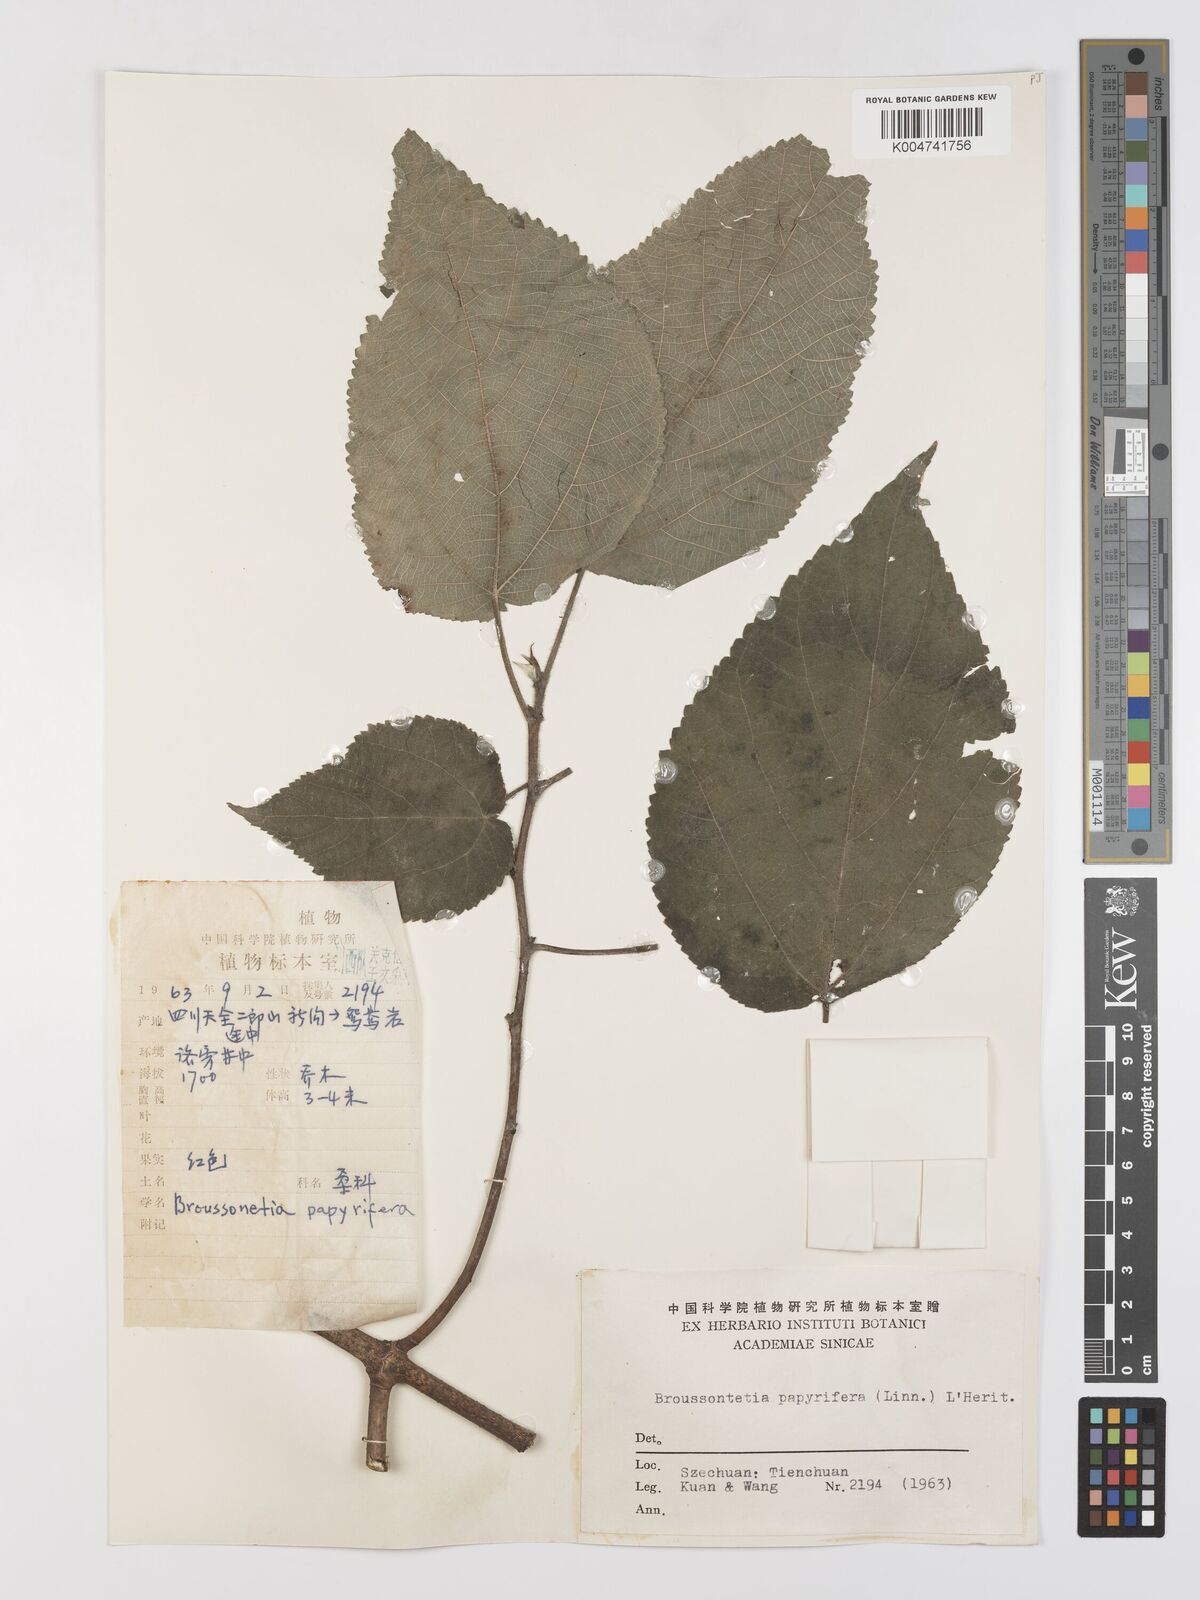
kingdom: Plantae
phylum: Tracheophyta
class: Magnoliopsida
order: Rosales
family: Moraceae
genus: Broussonetia
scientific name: Broussonetia
